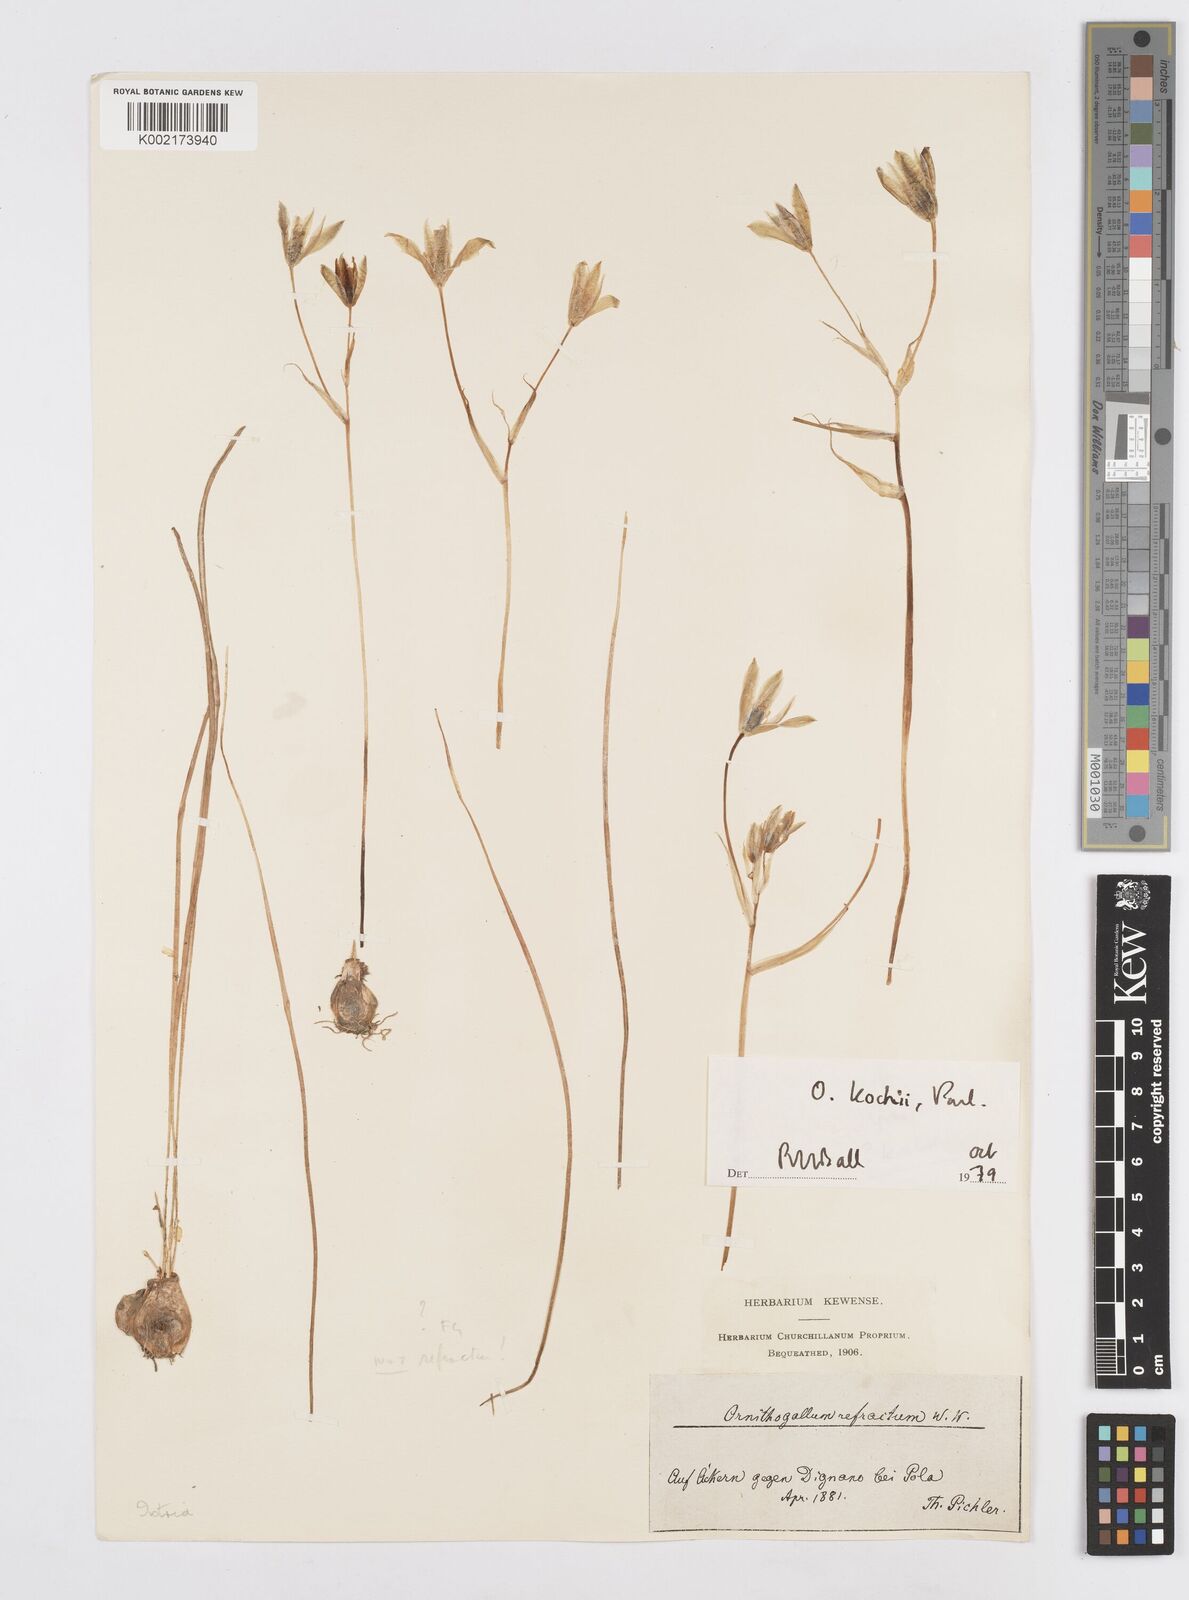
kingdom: Plantae
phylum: Tracheophyta
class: Liliopsida
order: Asparagales
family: Asparagaceae
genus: Ornithogalum
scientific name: Ornithogalum refractum
